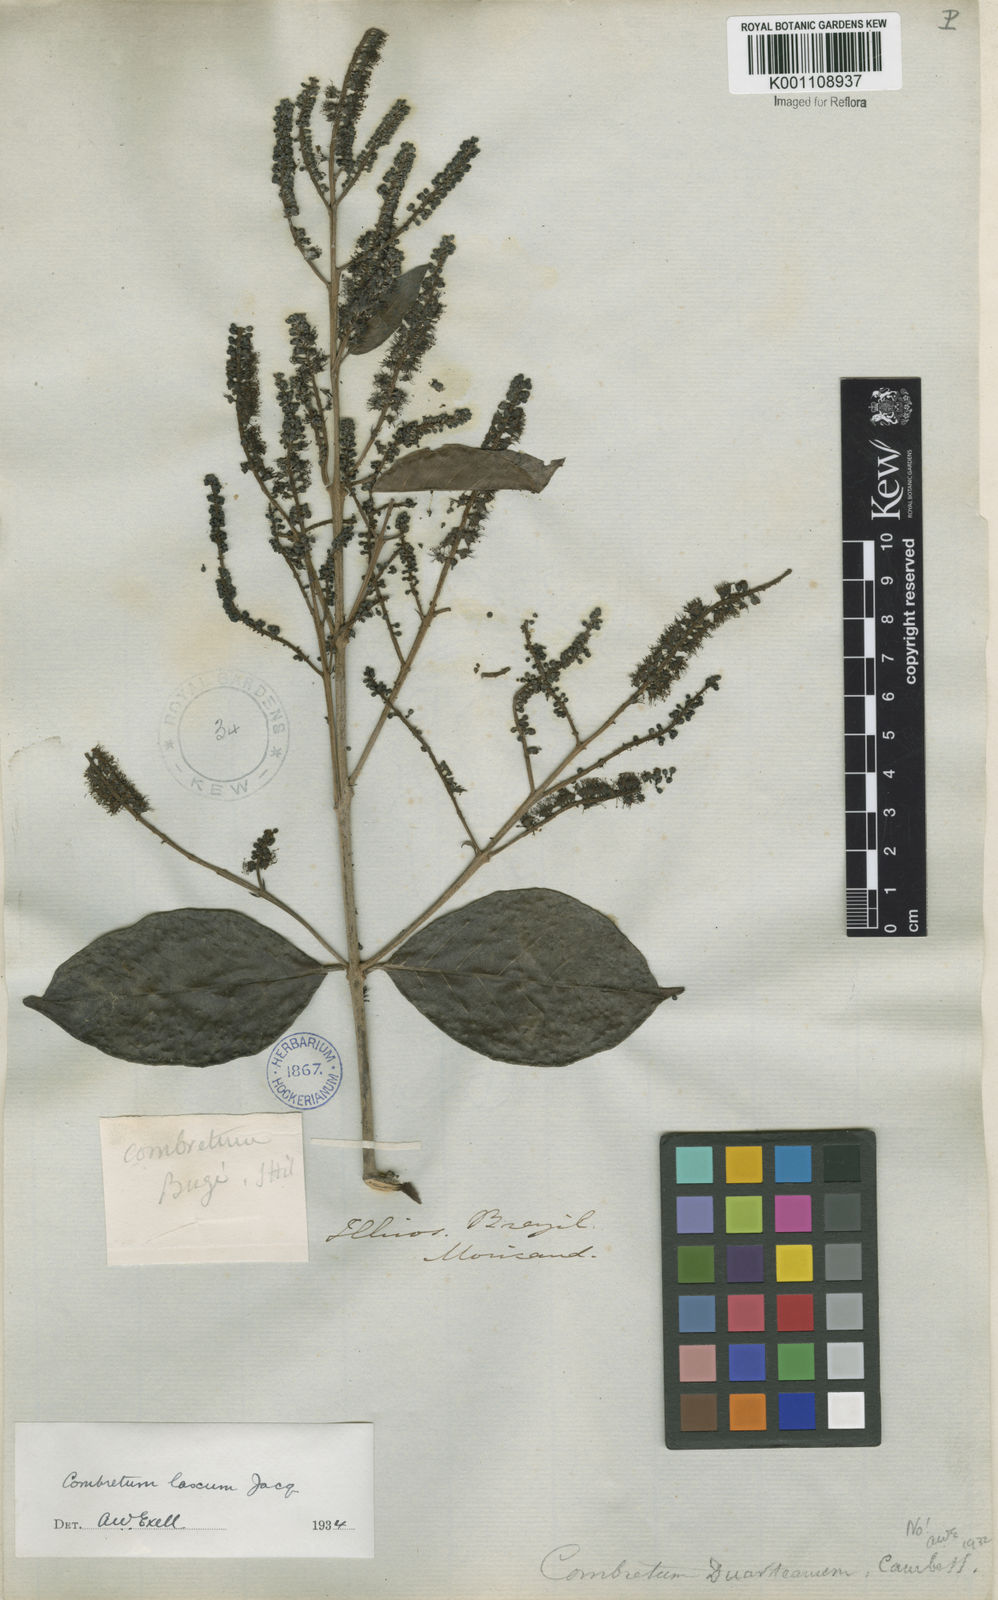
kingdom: Plantae
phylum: Tracheophyta
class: Magnoliopsida
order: Myrtales
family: Combretaceae
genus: Combretum
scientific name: Combretum laxum
